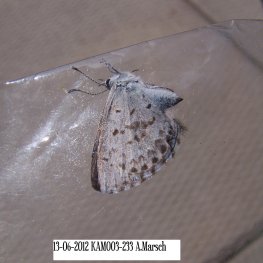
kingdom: Animalia
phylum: Arthropoda
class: Insecta
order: Lepidoptera
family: Lycaenidae
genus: Celastrina
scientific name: Celastrina lucia
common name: Northern Spring Azure
